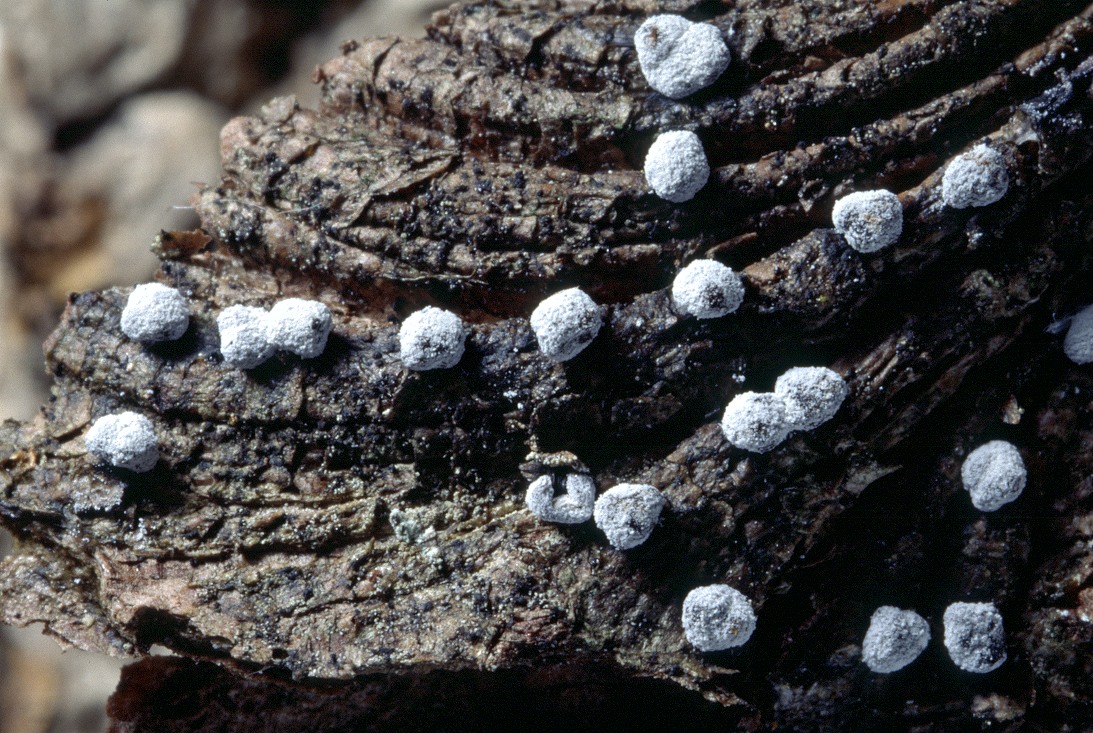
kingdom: Protozoa
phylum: Mycetozoa
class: Myxomycetes
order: Physarales
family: Didymiaceae
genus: Didymium
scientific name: Didymium melanospermum
